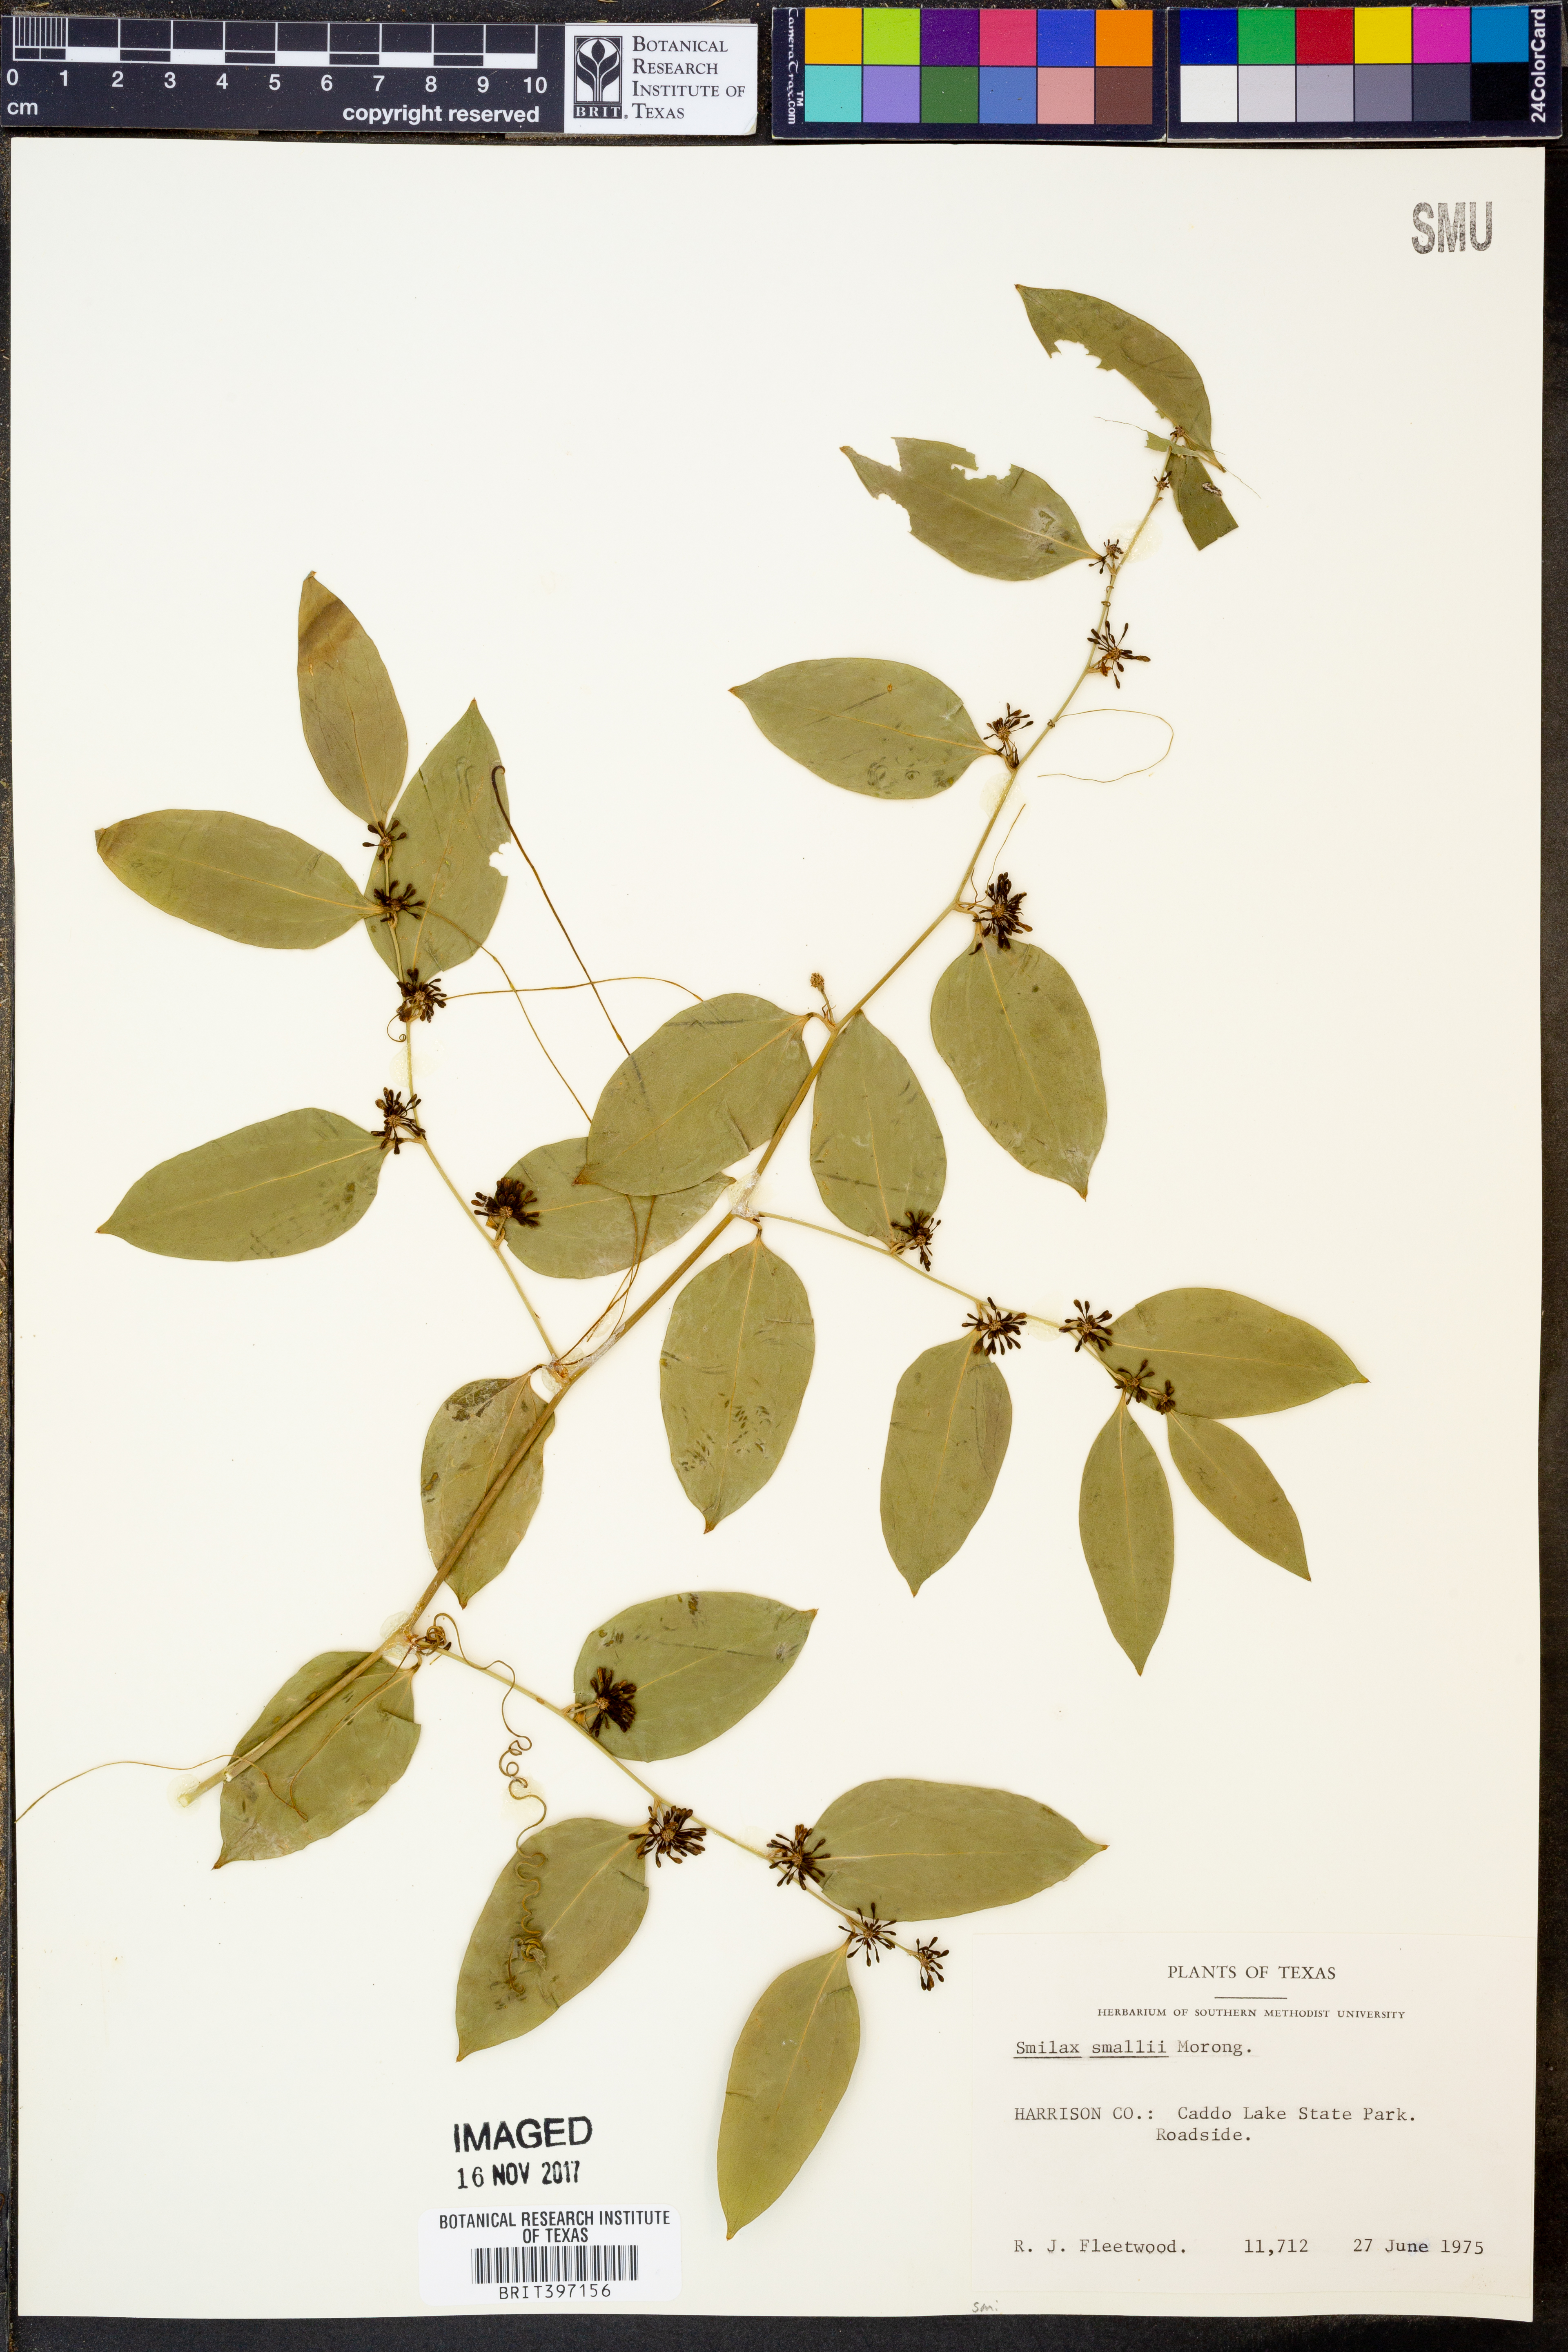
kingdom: Plantae
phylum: Tracheophyta
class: Liliopsida
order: Liliales
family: Smilacaceae
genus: Smilax
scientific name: Smilax maritima
